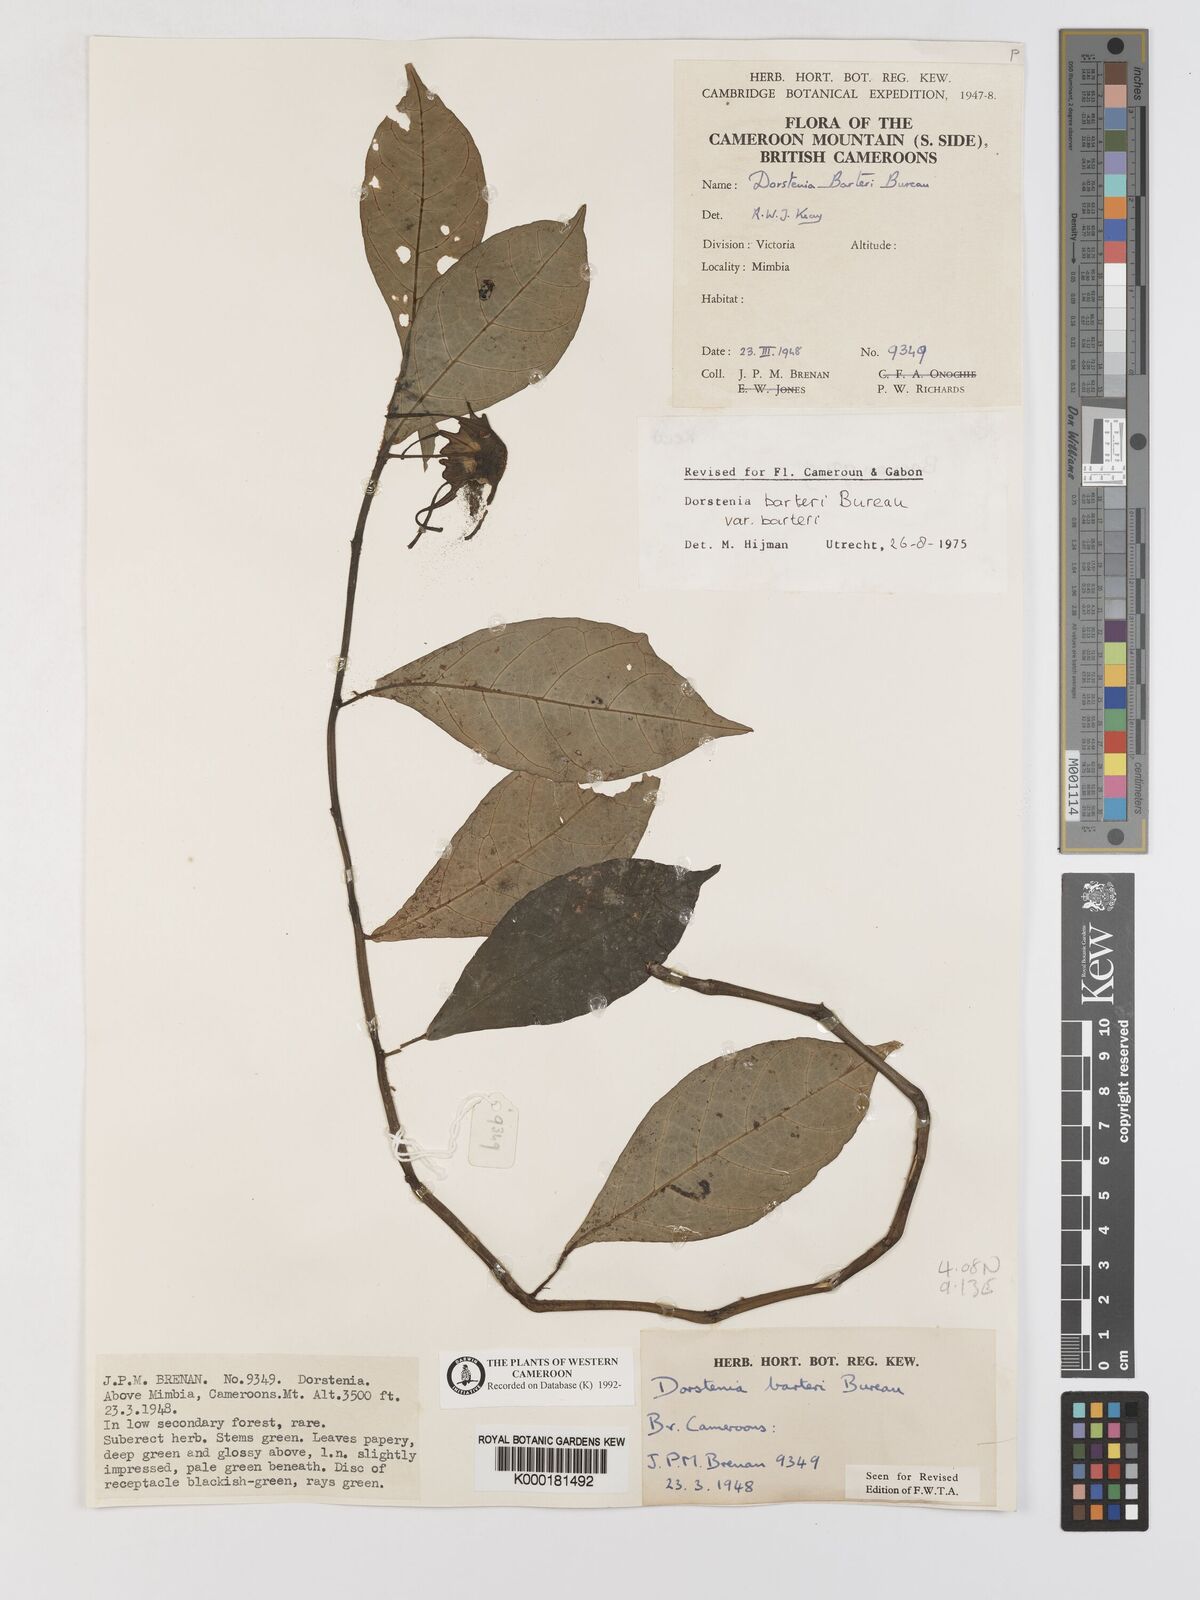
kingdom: Plantae
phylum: Tracheophyta
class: Magnoliopsida
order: Rosales
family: Moraceae
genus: Dorstenia
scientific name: Dorstenia barteri
